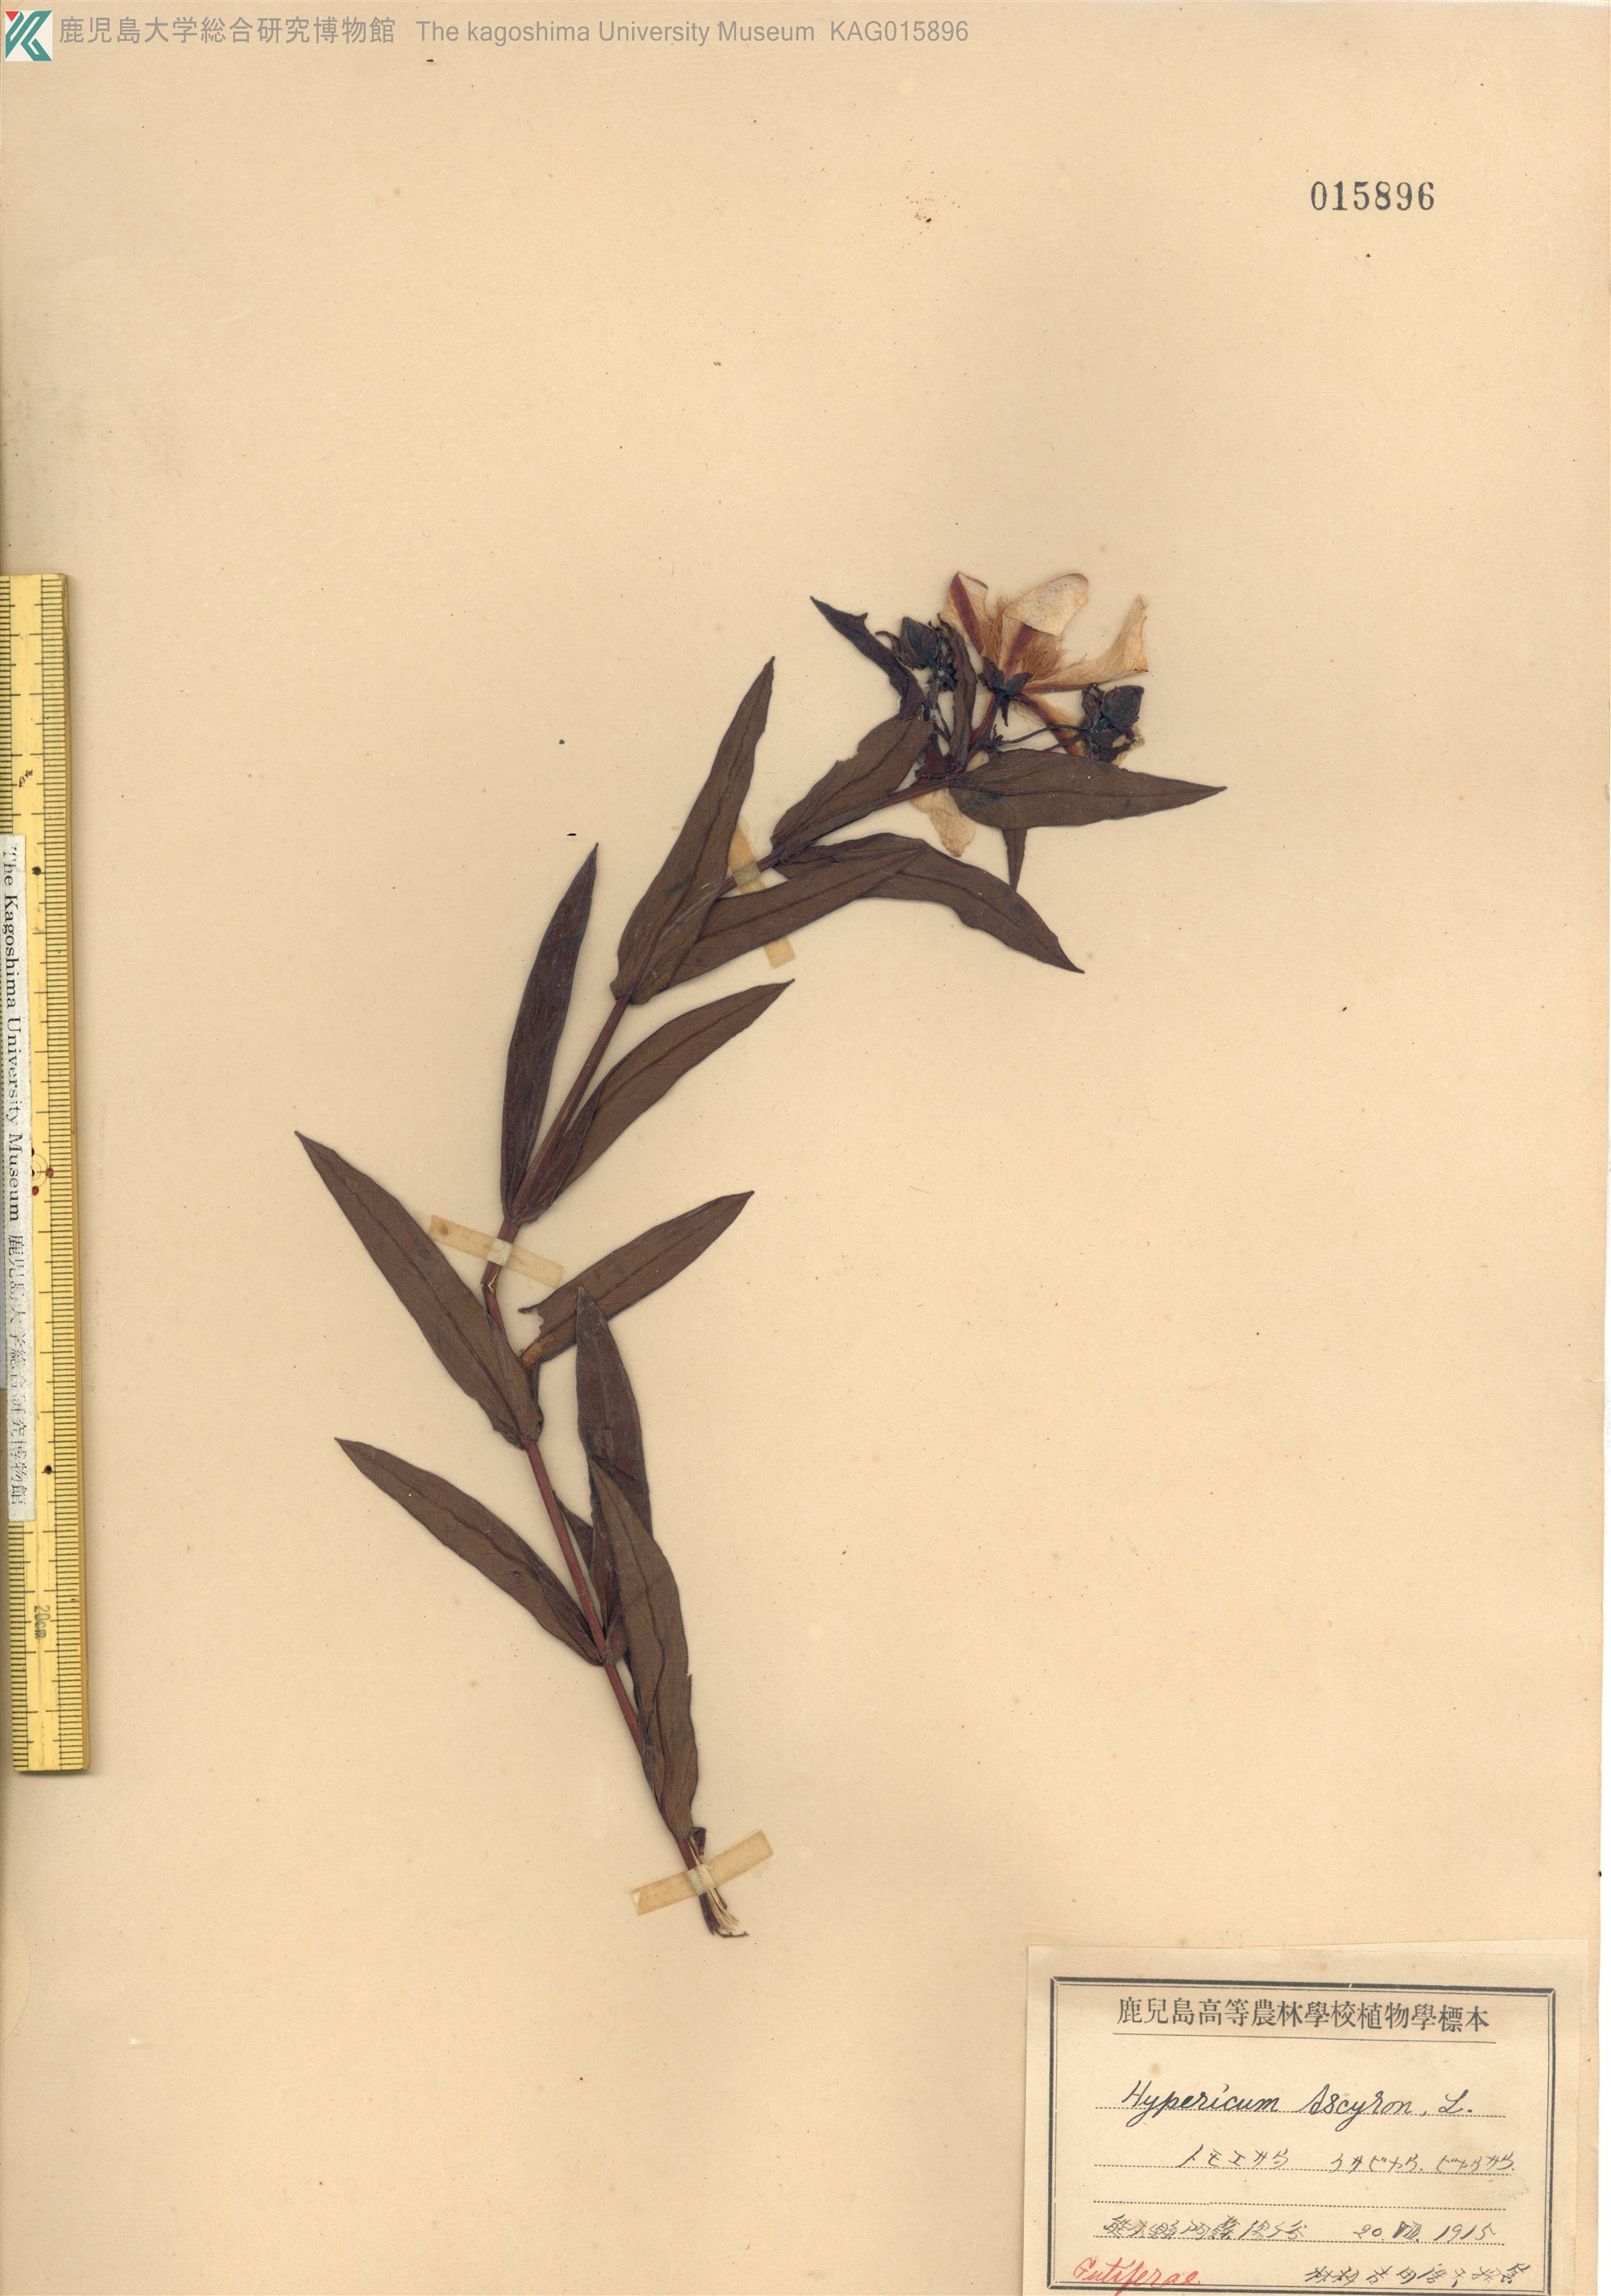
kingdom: Plantae
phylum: Tracheophyta
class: Magnoliopsida
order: Malpighiales
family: Hypericaceae
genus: Hypericum
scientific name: Hypericum ascyron
